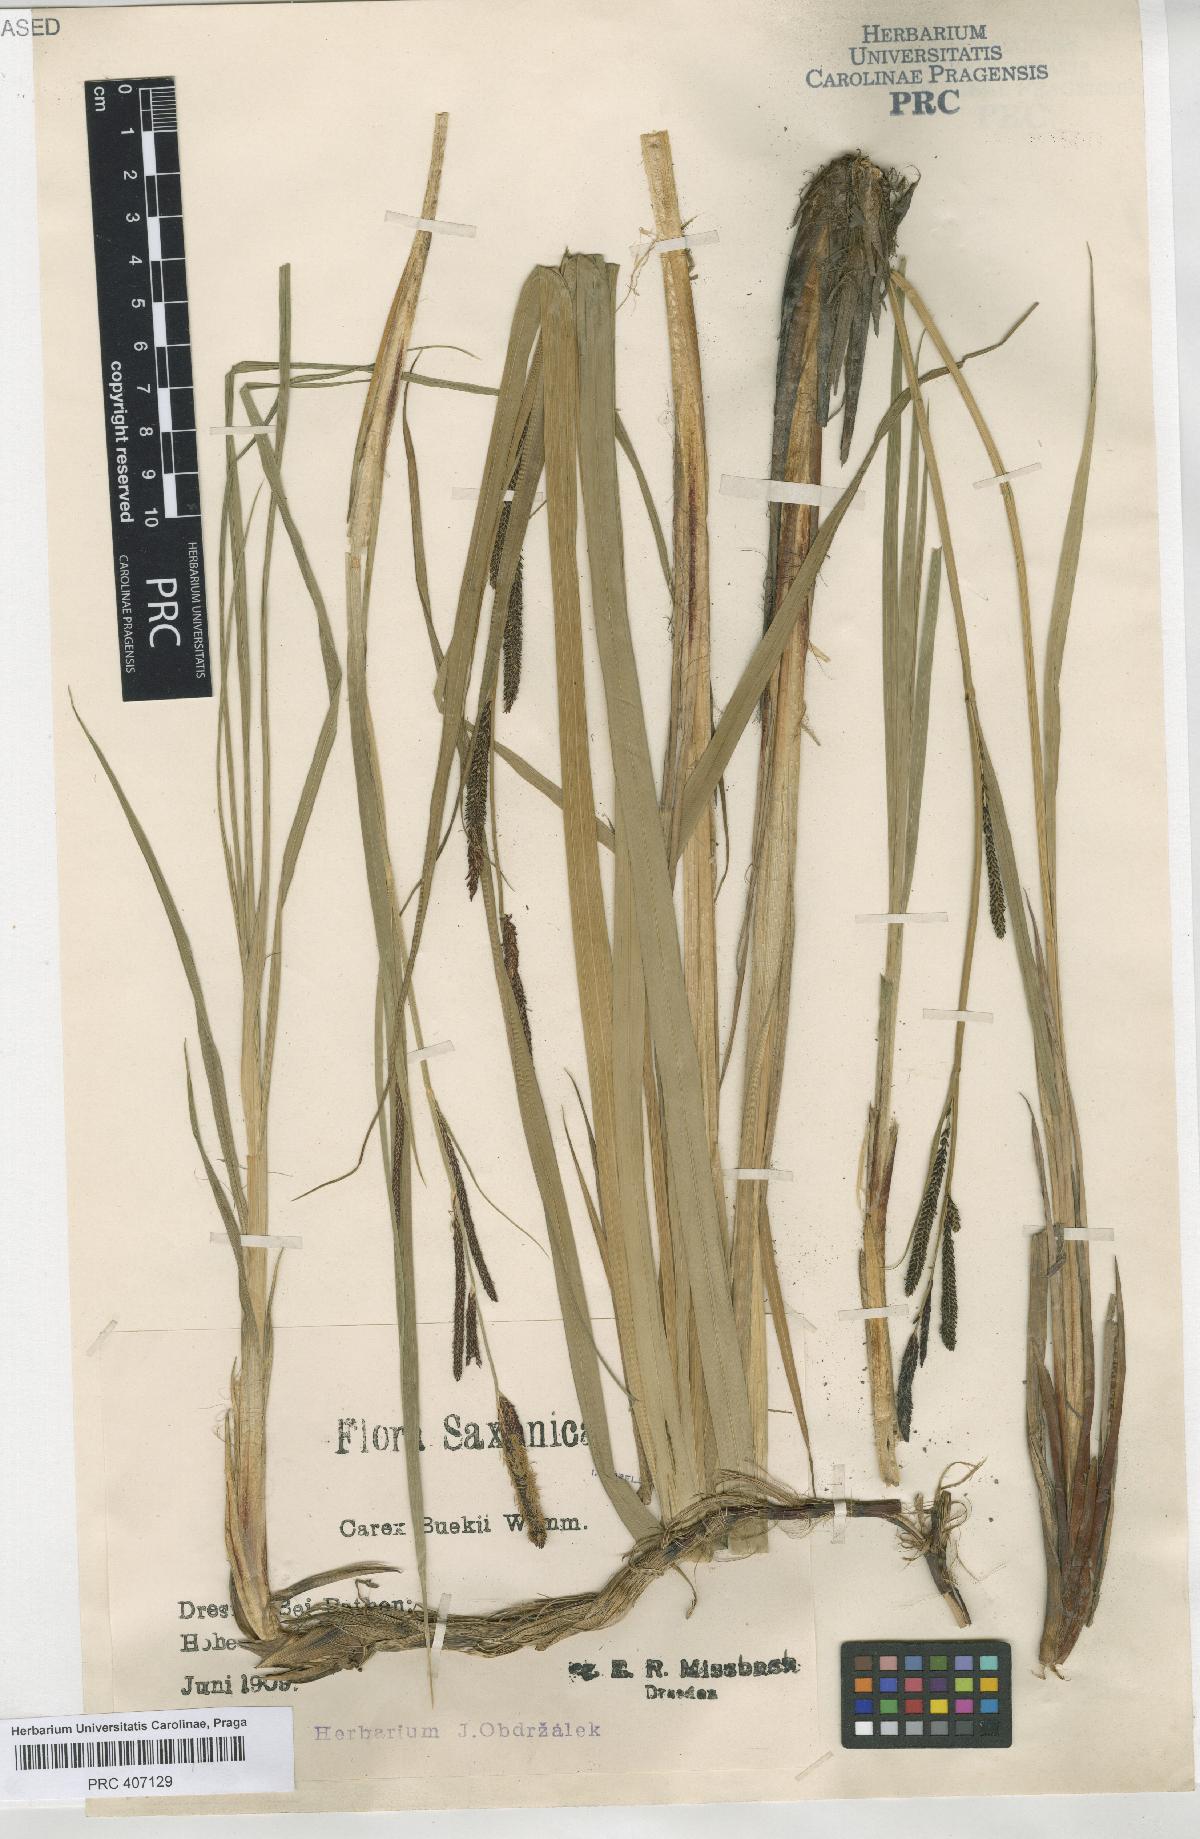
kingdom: Plantae
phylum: Tracheophyta
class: Liliopsida
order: Poales
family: Cyperaceae
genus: Carex
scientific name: Carex buekii
